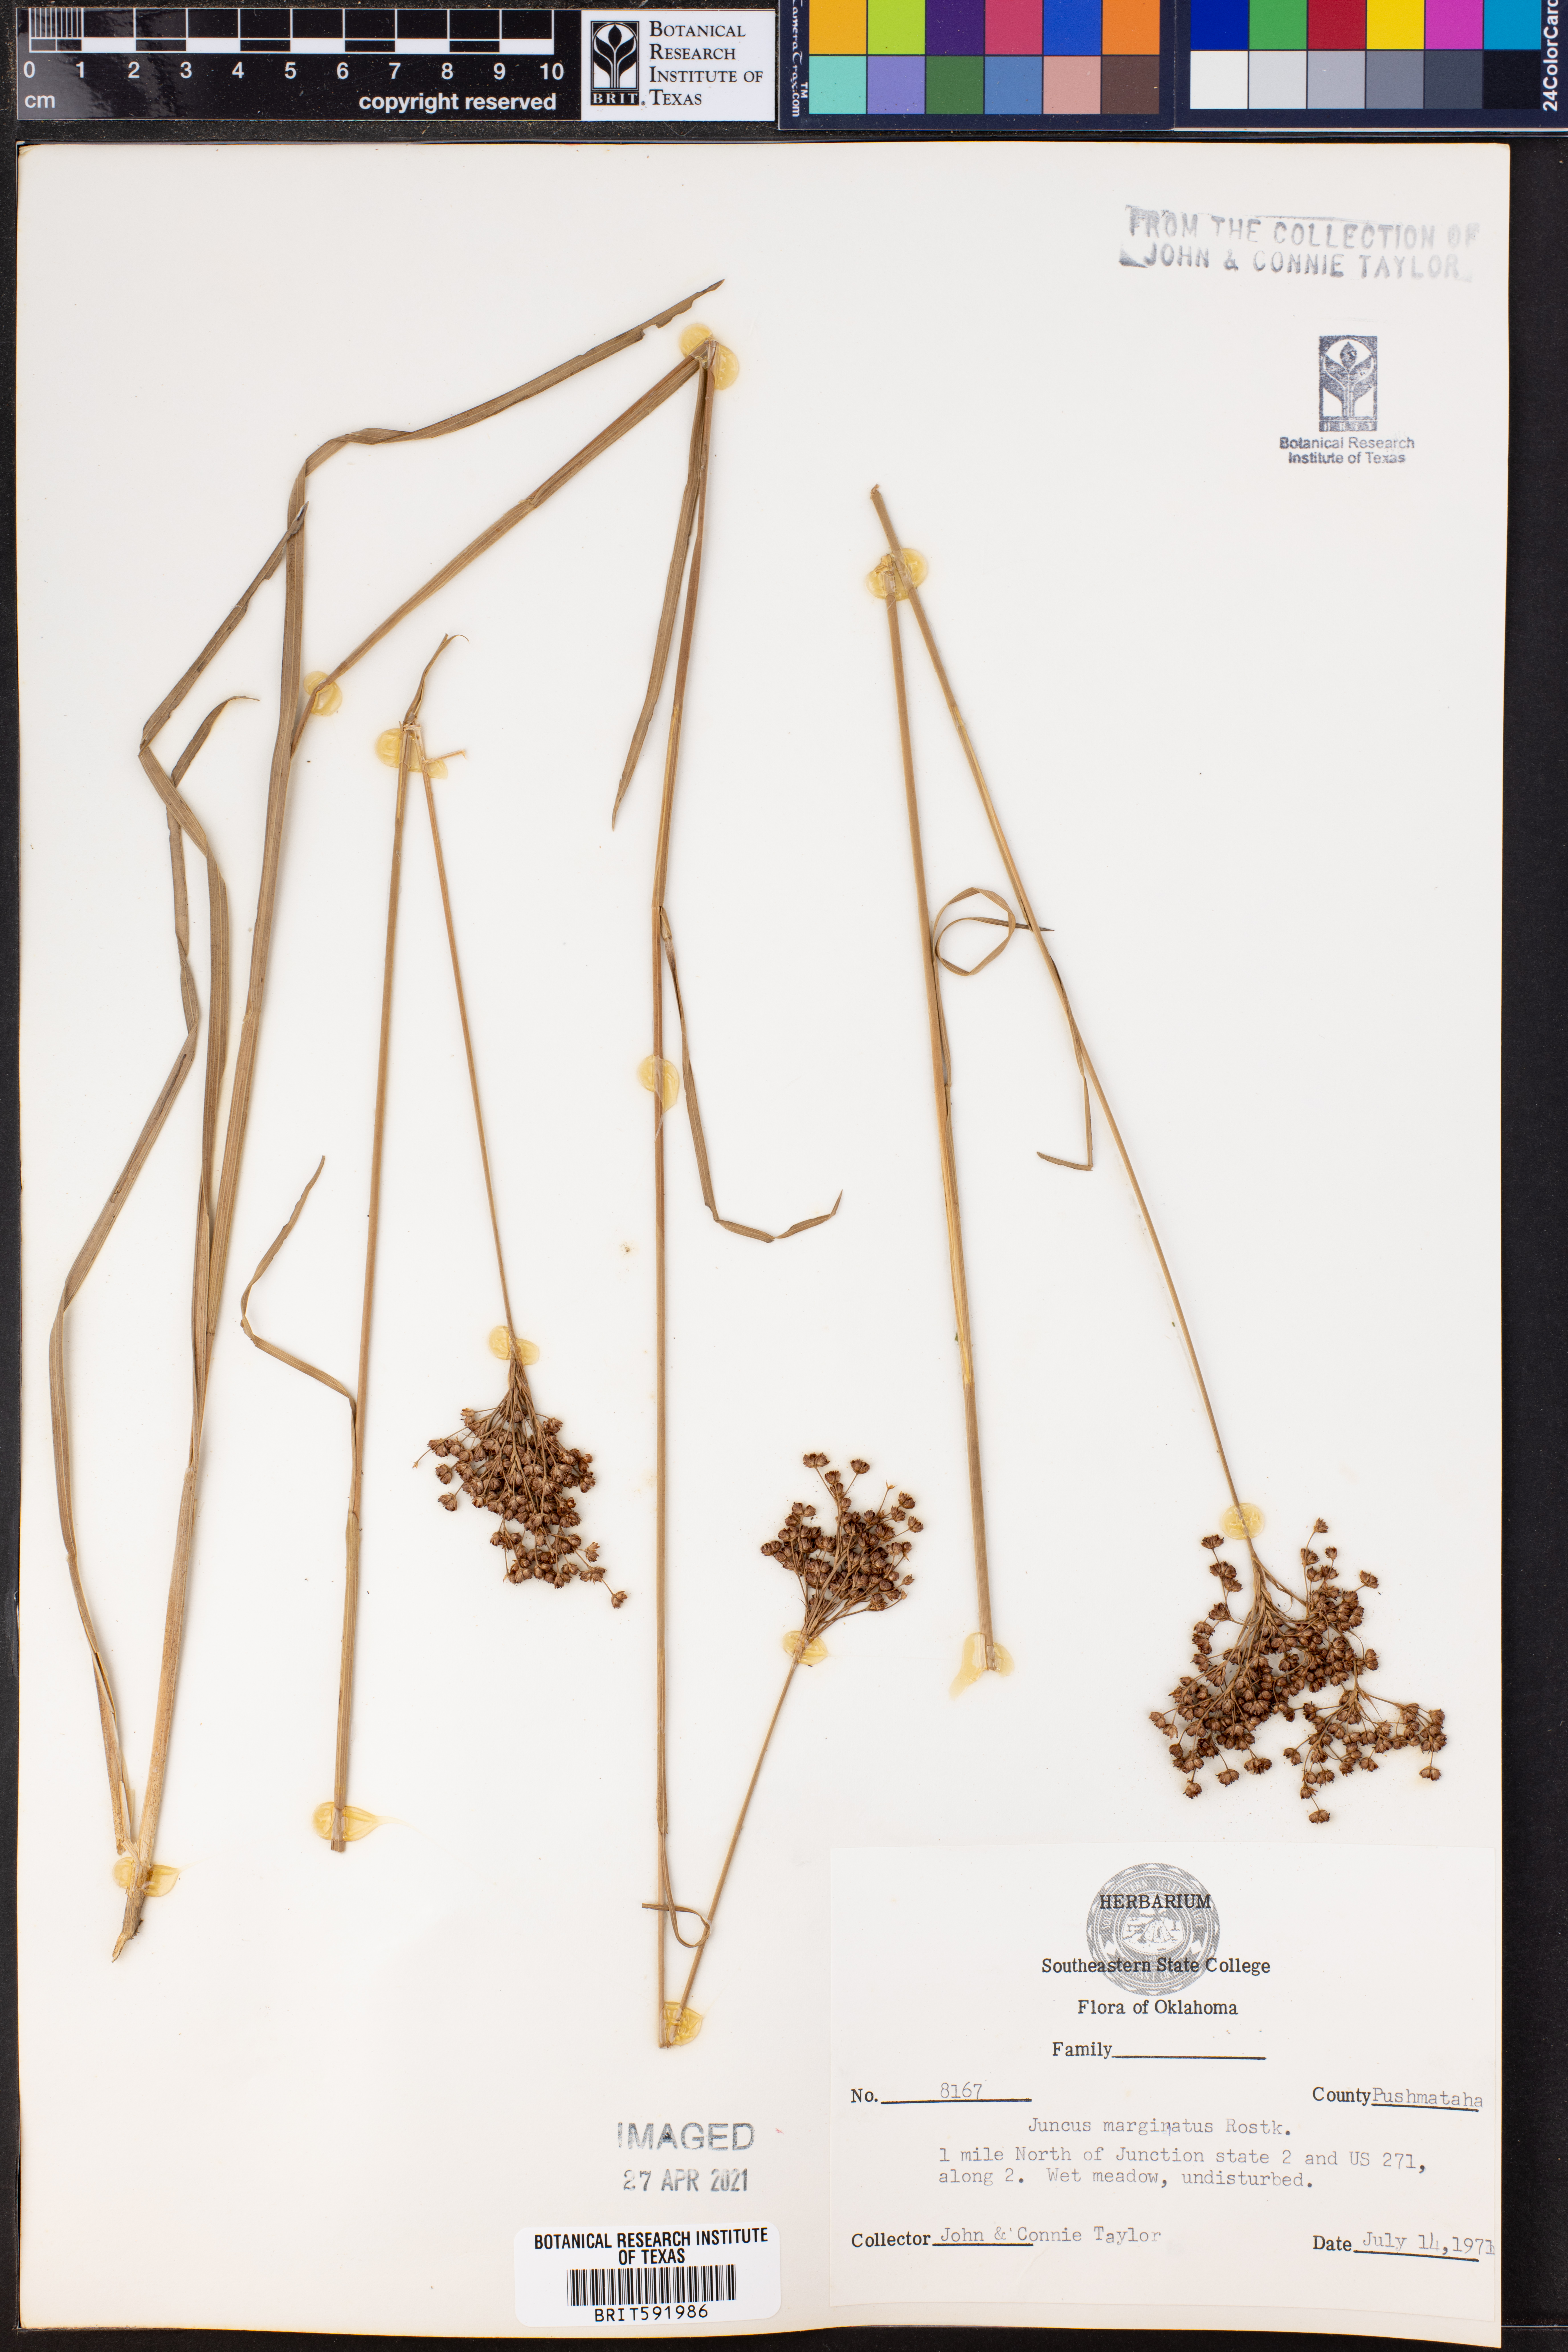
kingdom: Plantae
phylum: Tracheophyta
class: Liliopsida
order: Poales
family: Juncaceae
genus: Juncus
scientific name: Juncus marginatus
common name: Grass-leaf rush
